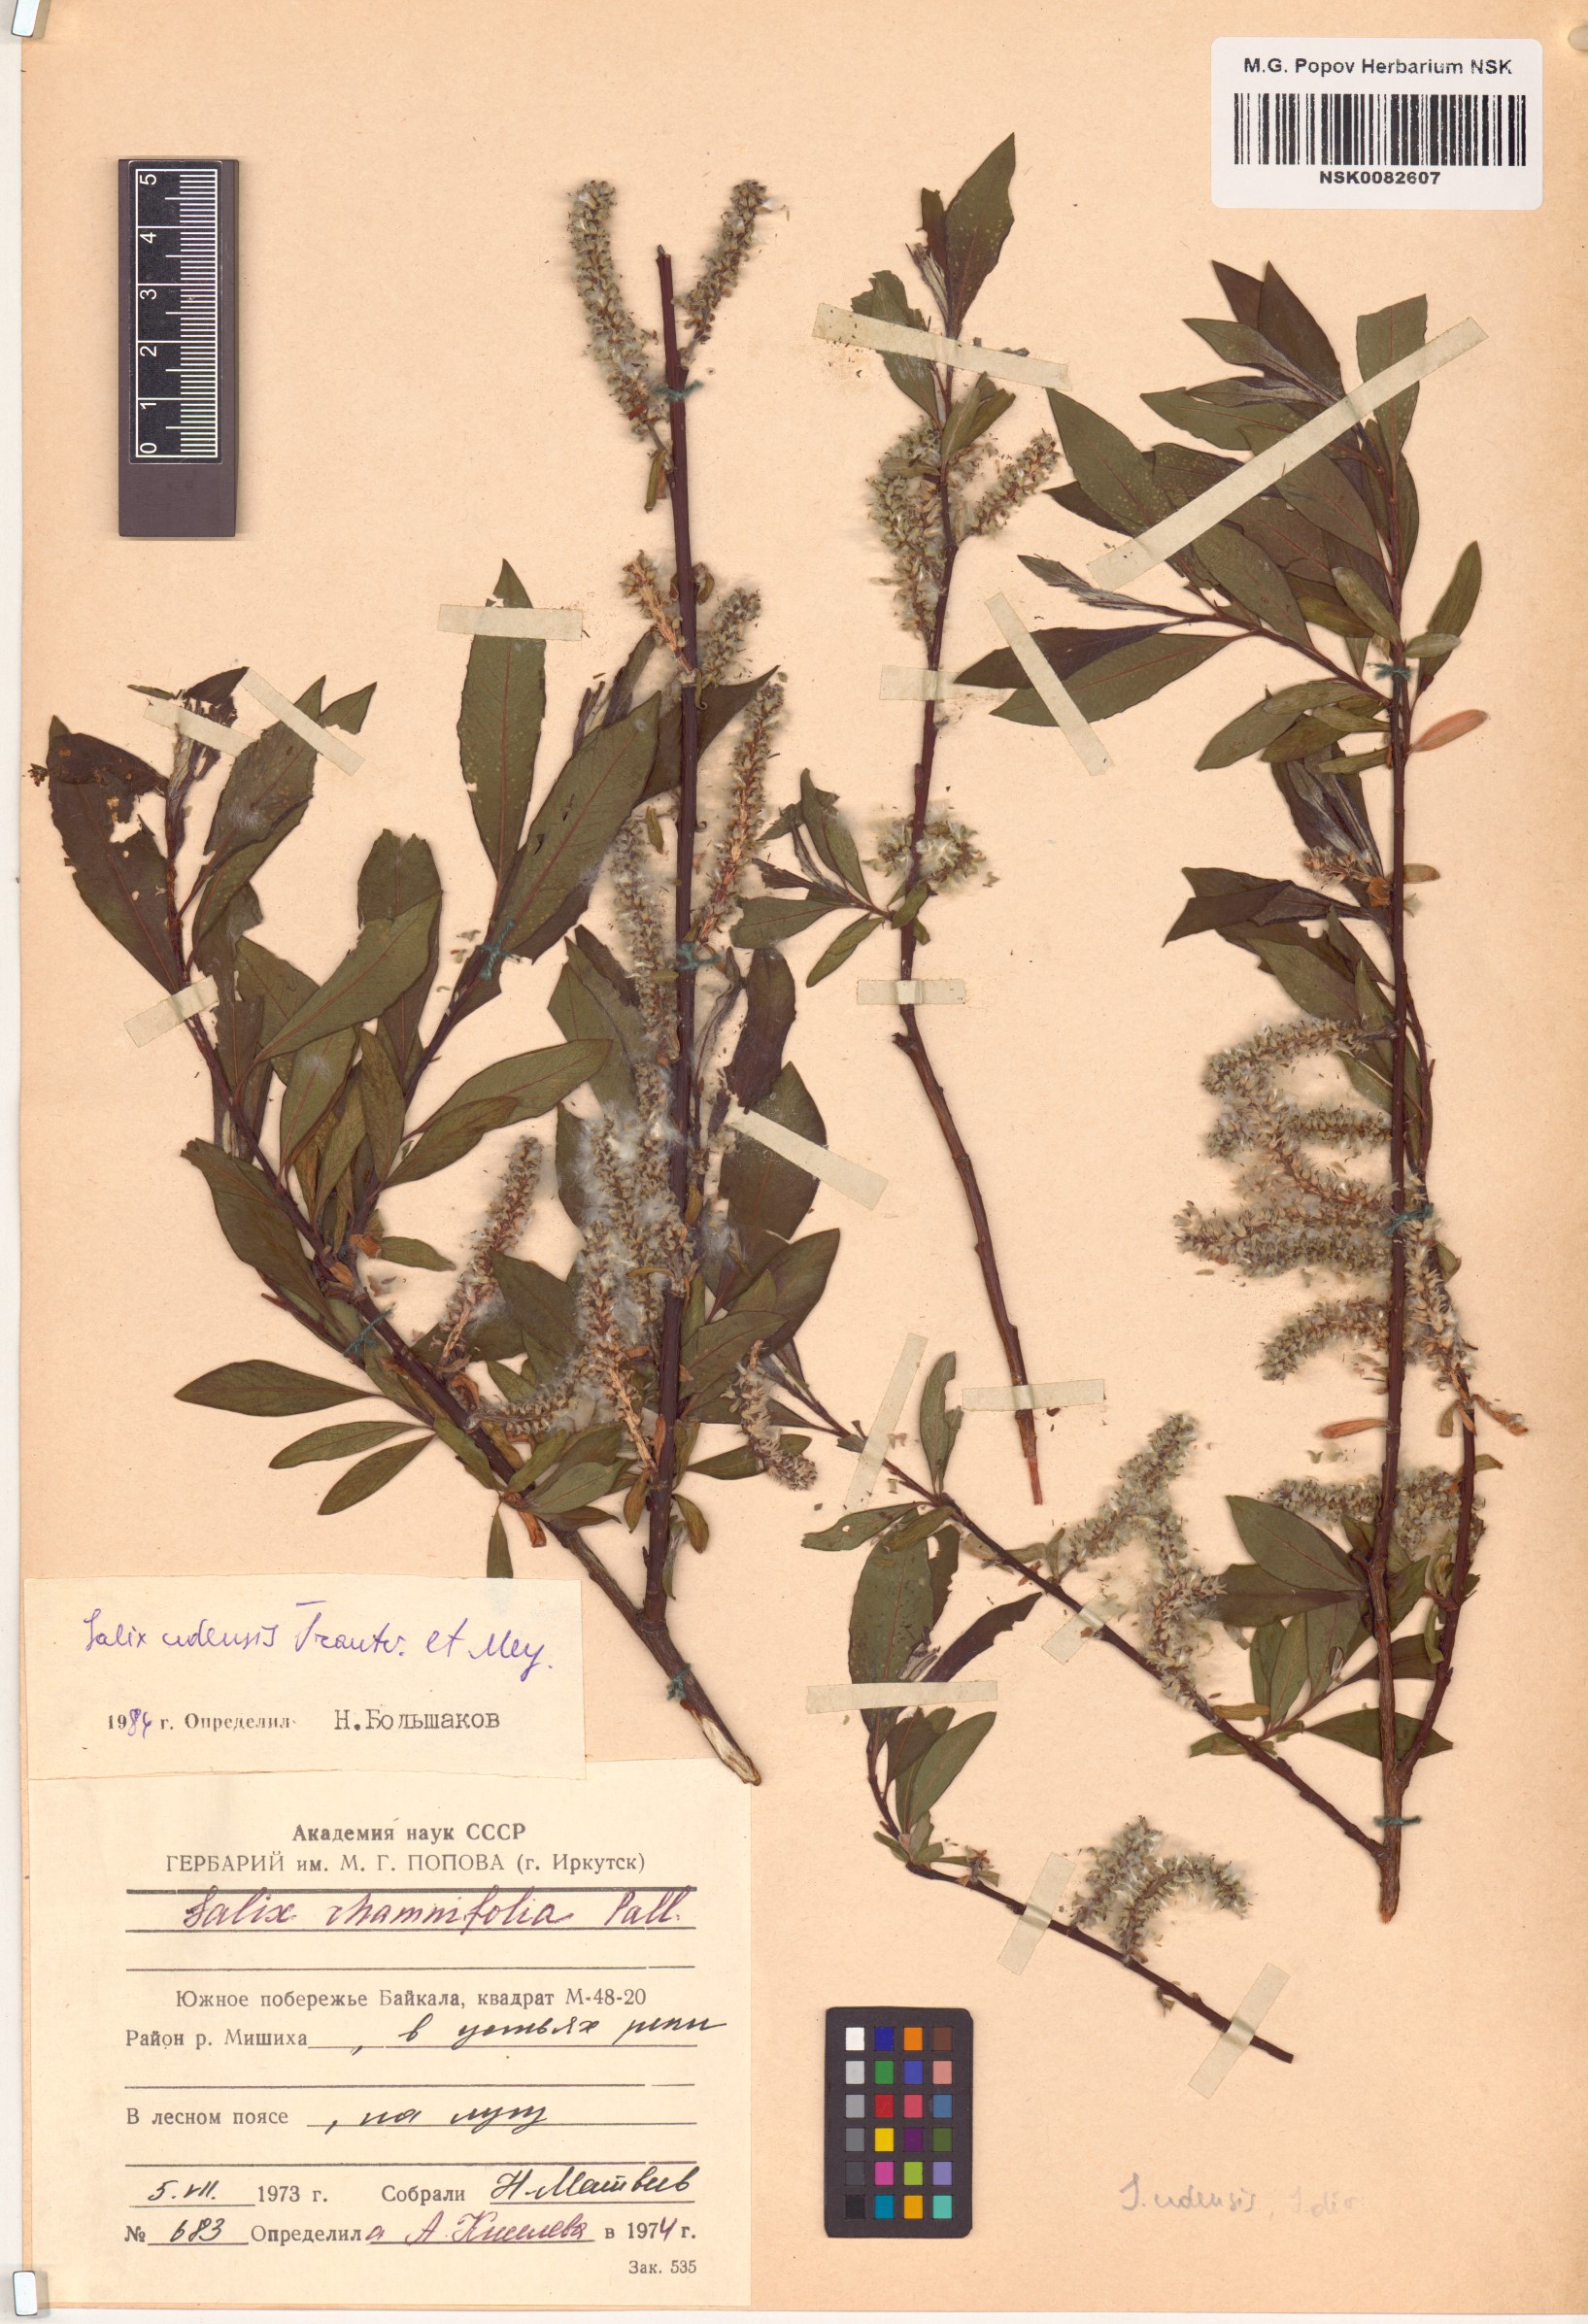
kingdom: Plantae
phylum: Tracheophyta
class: Magnoliopsida
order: Malpighiales
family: Salicaceae
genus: Salix
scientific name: Salix udensis
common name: Sachalin willow
